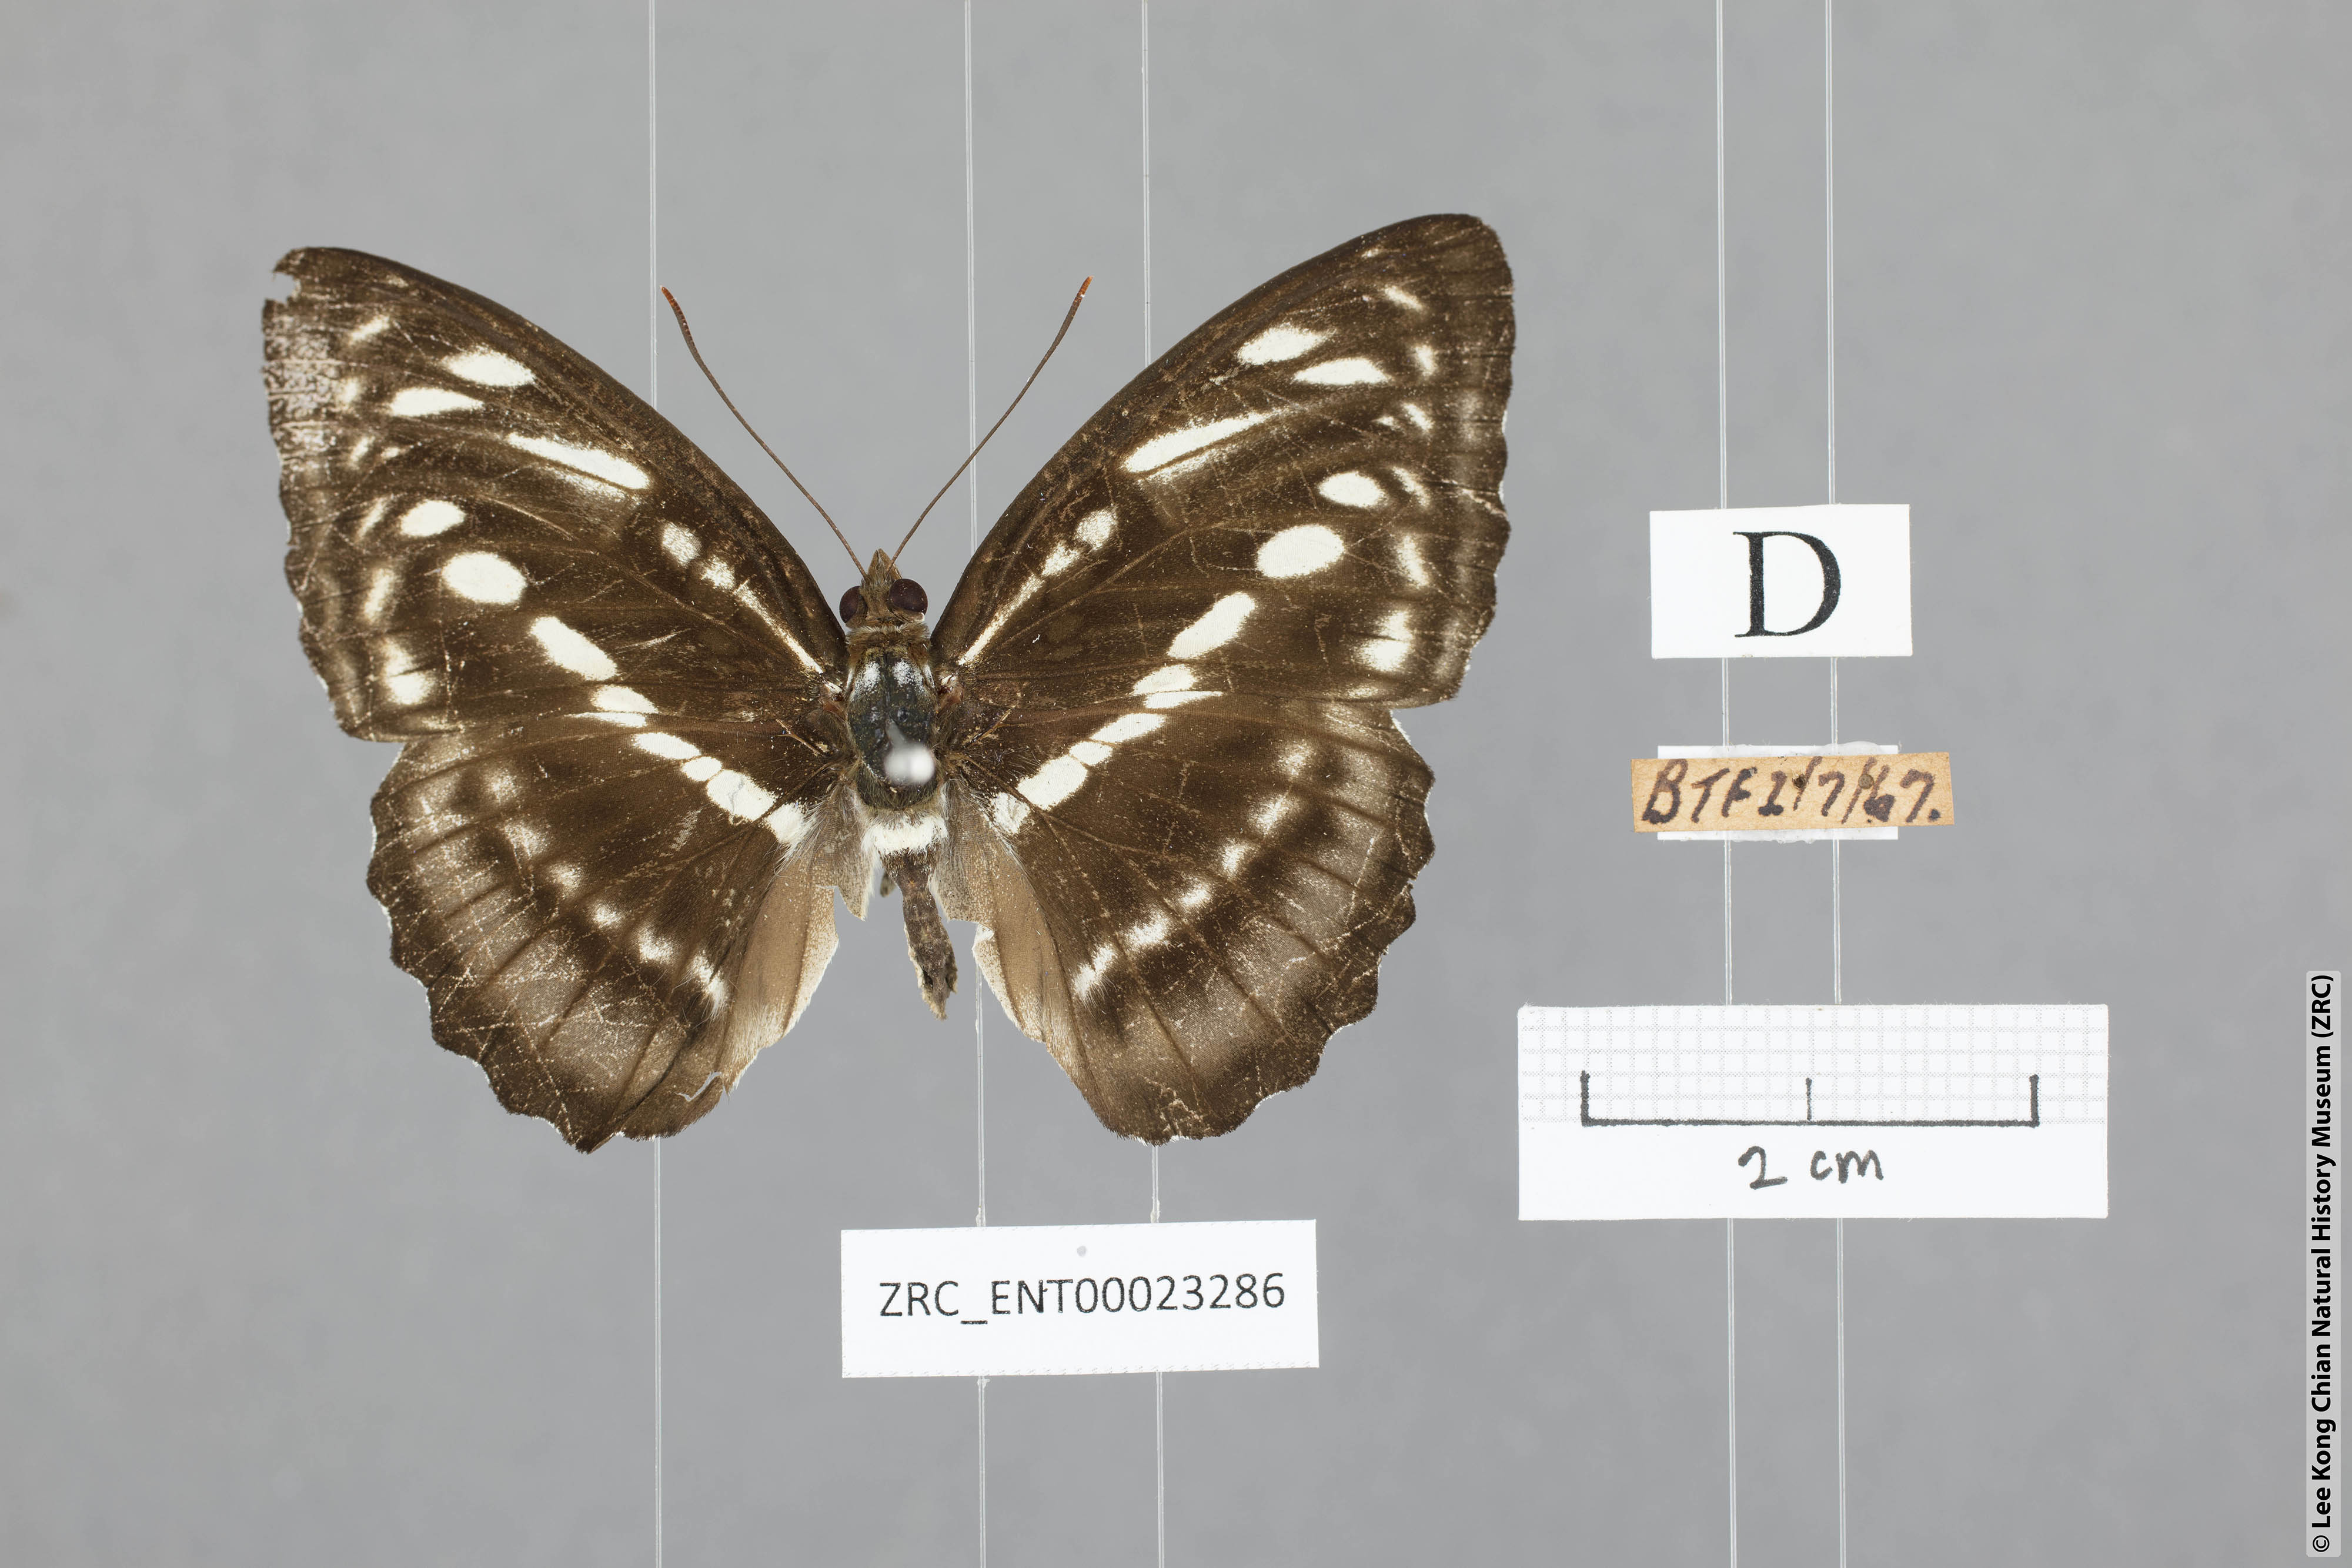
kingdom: Animalia
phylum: Arthropoda
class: Insecta
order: Lepidoptera
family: Nymphalidae
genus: Parathyma
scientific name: Parathyma selenophora
